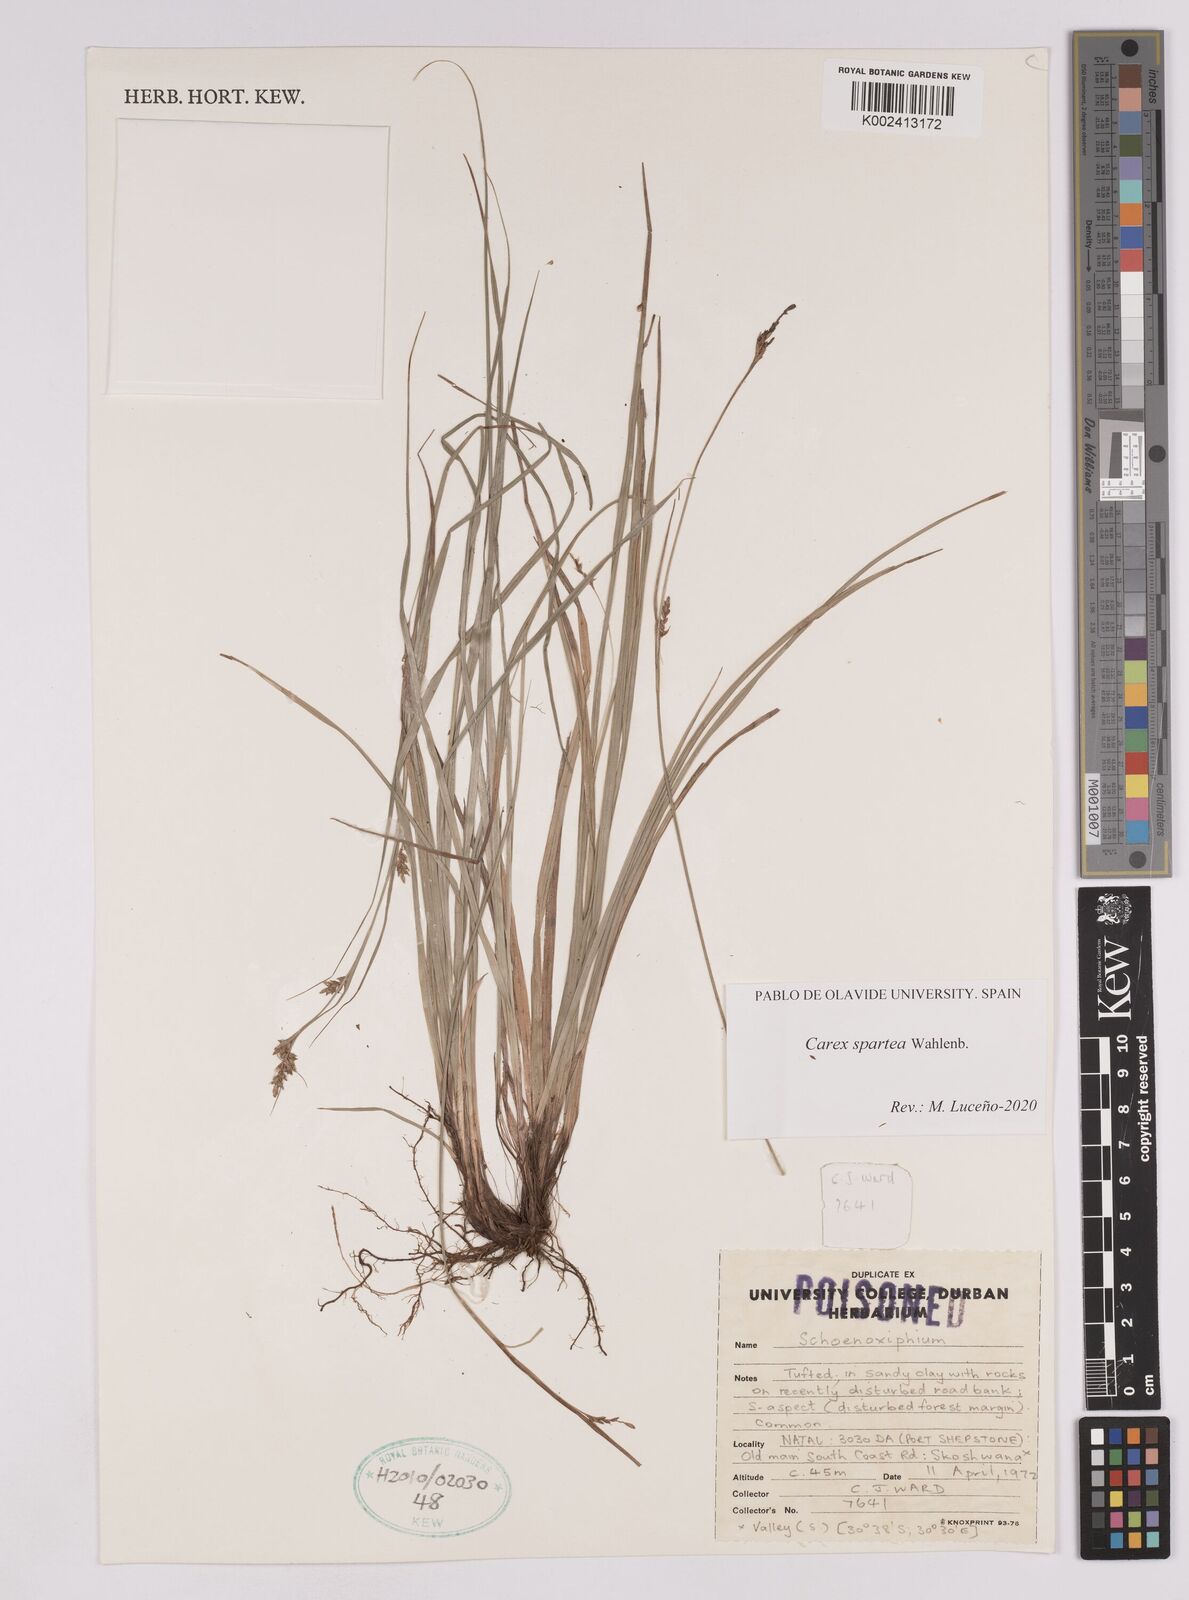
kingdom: Plantae
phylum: Tracheophyta
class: Liliopsida
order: Poales
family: Cyperaceae
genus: Carex
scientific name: Carex spartea
